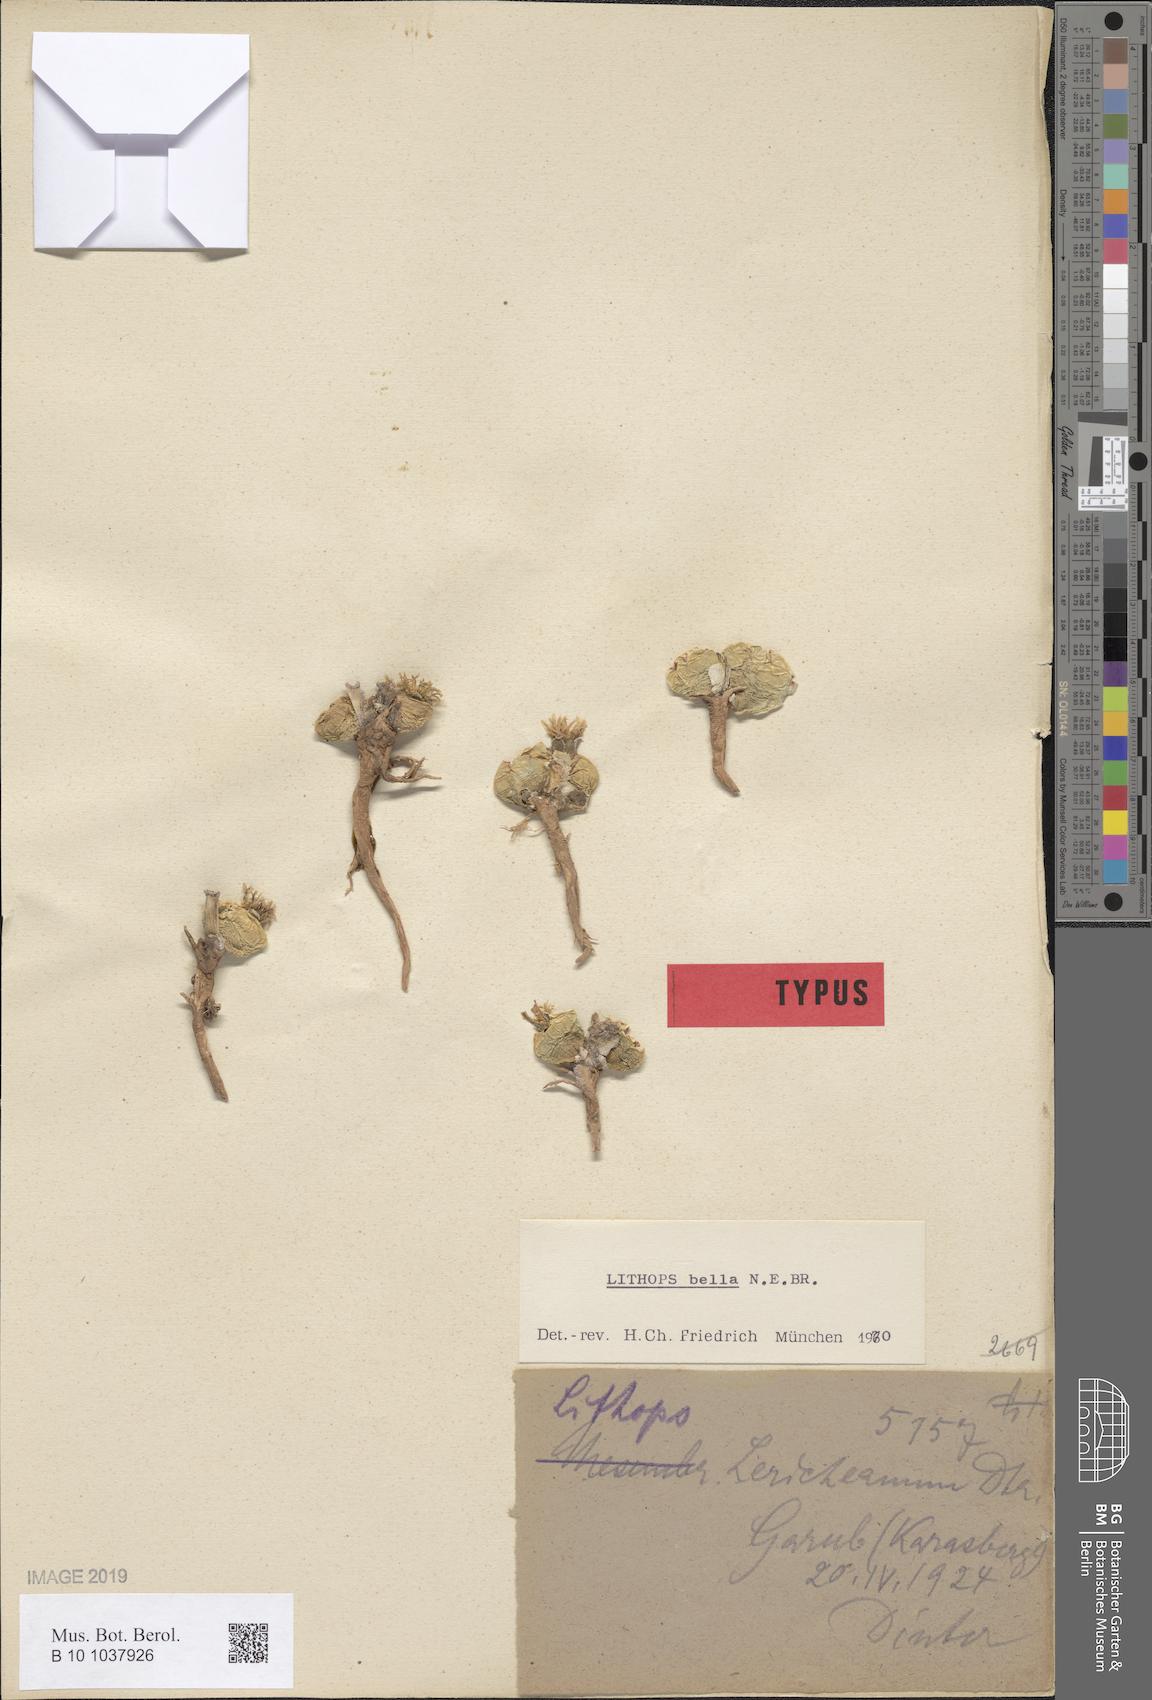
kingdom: Plantae
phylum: Tracheophyta
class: Magnoliopsida
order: Caryophyllales
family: Aizoaceae
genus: Lithops
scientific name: Lithops karasmontana
